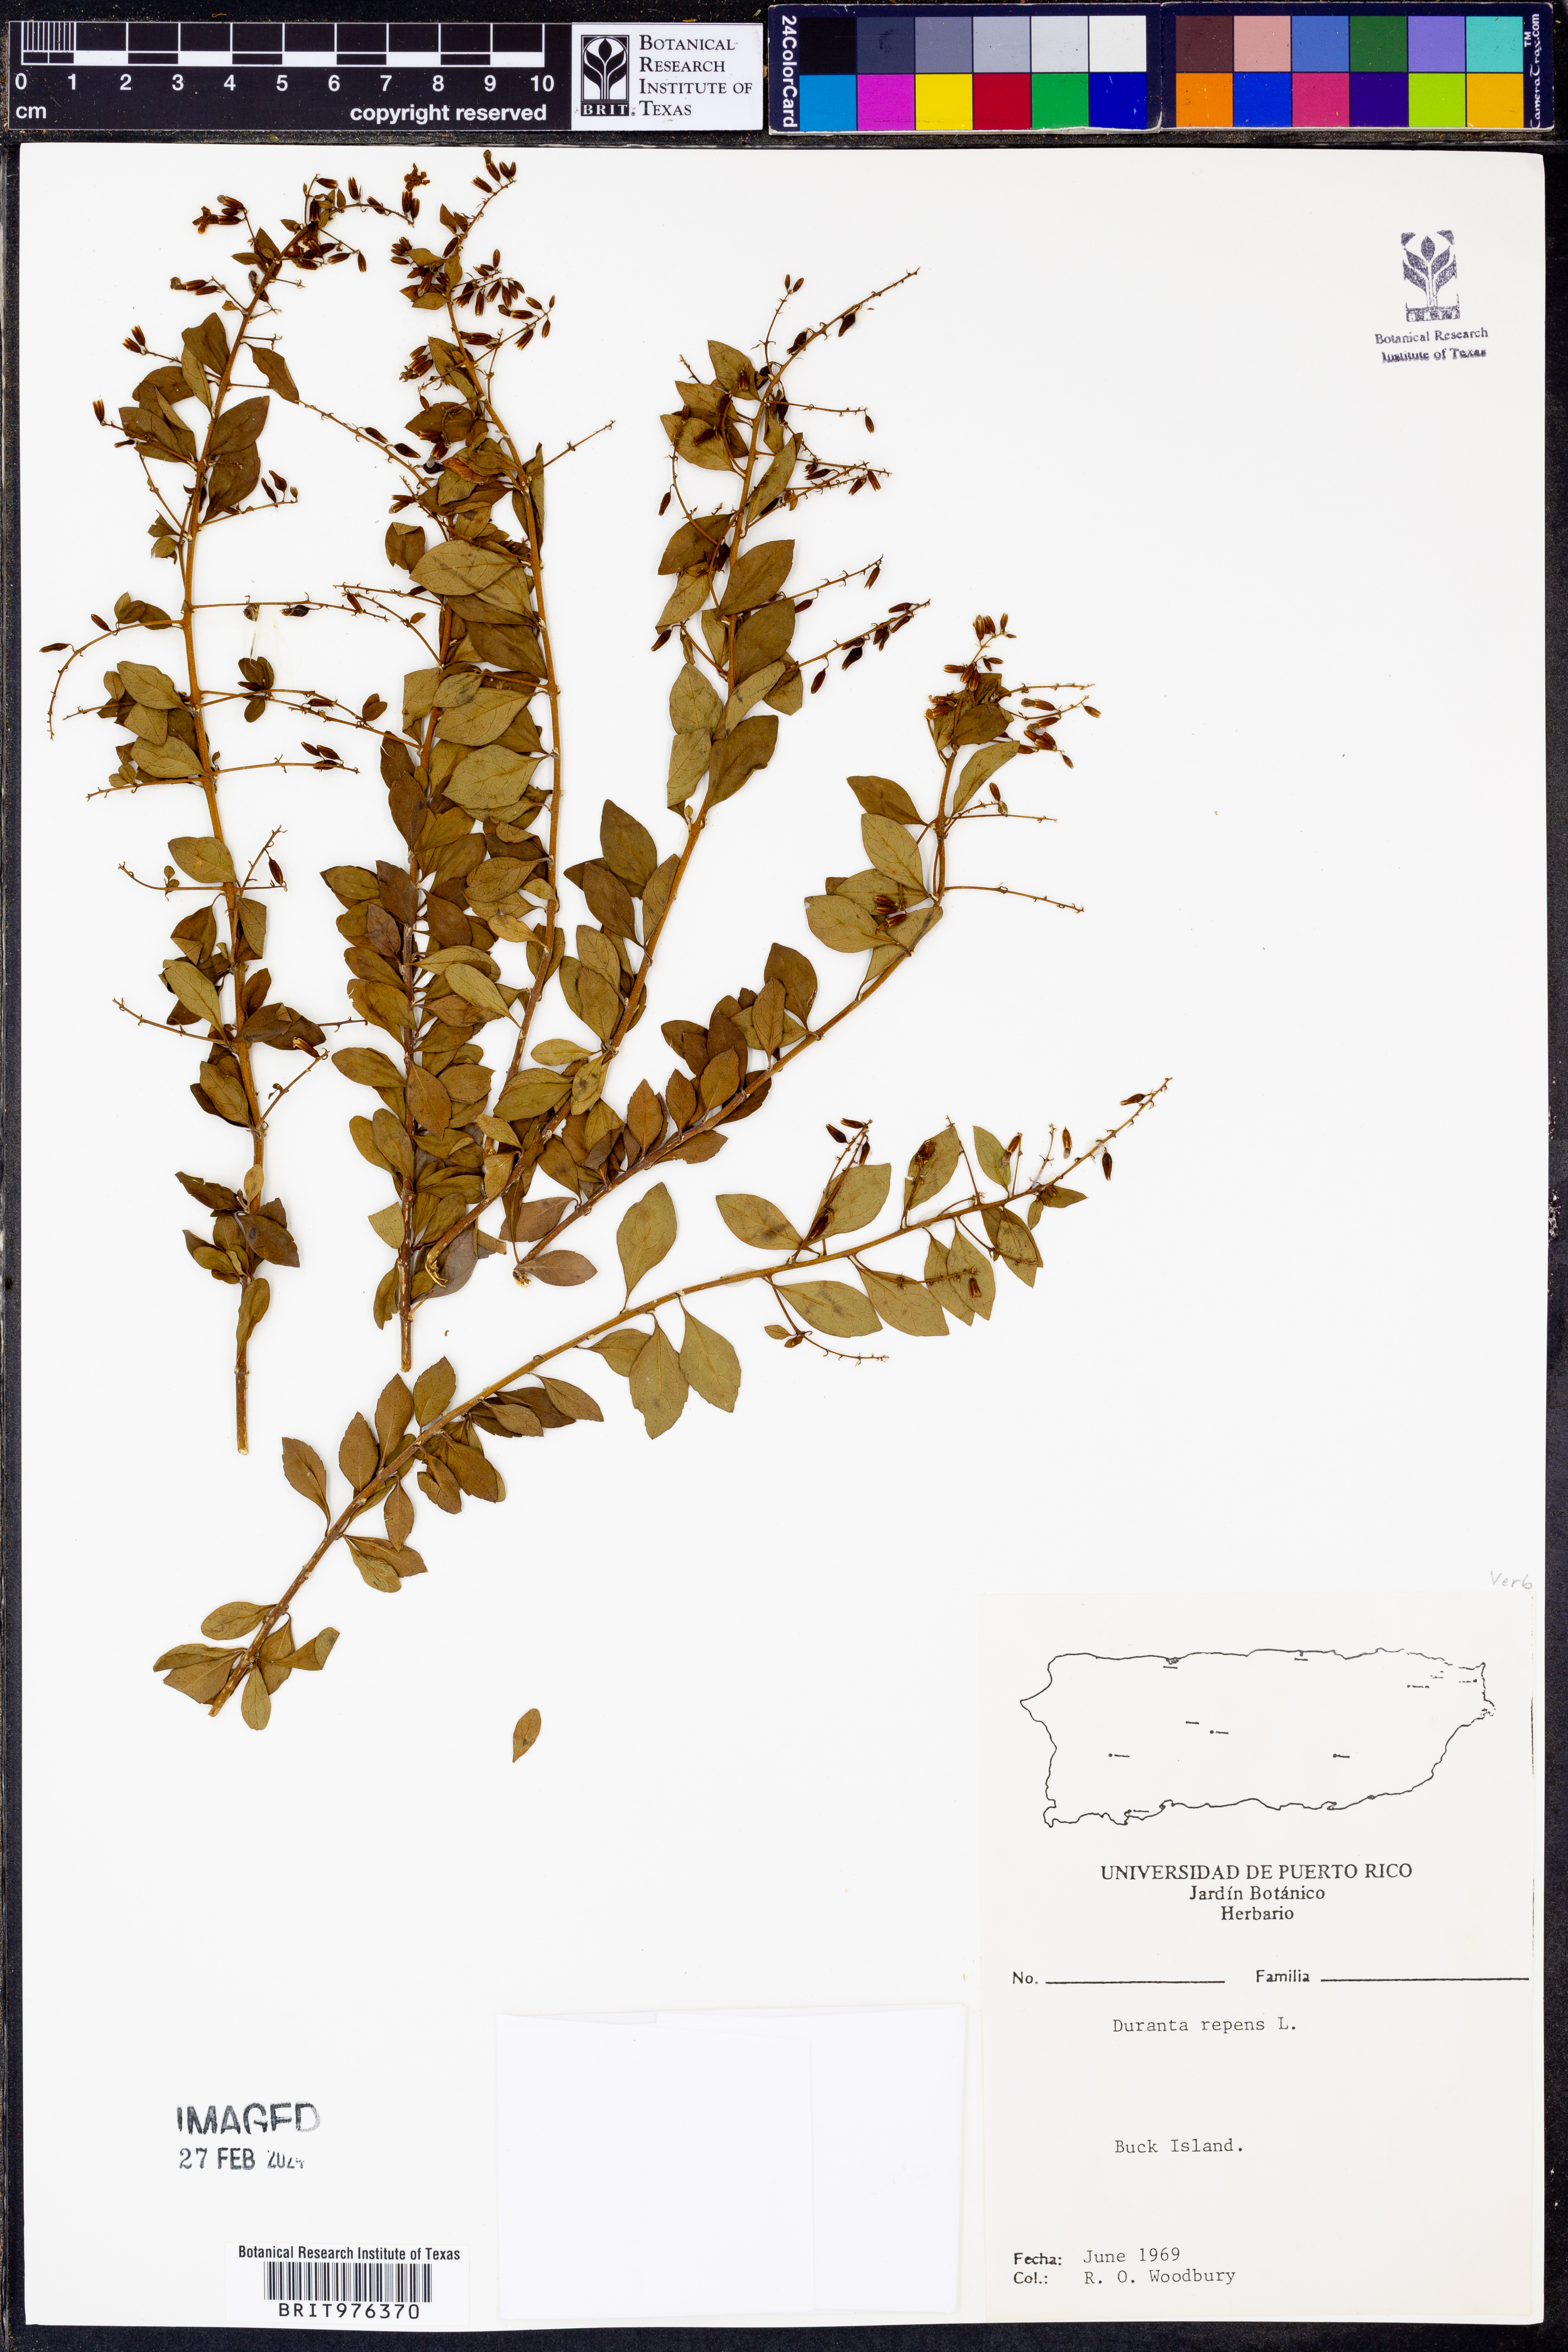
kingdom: Plantae
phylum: Tracheophyta
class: Magnoliopsida
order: Lamiales
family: Verbenaceae
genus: Duranta
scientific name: Duranta
